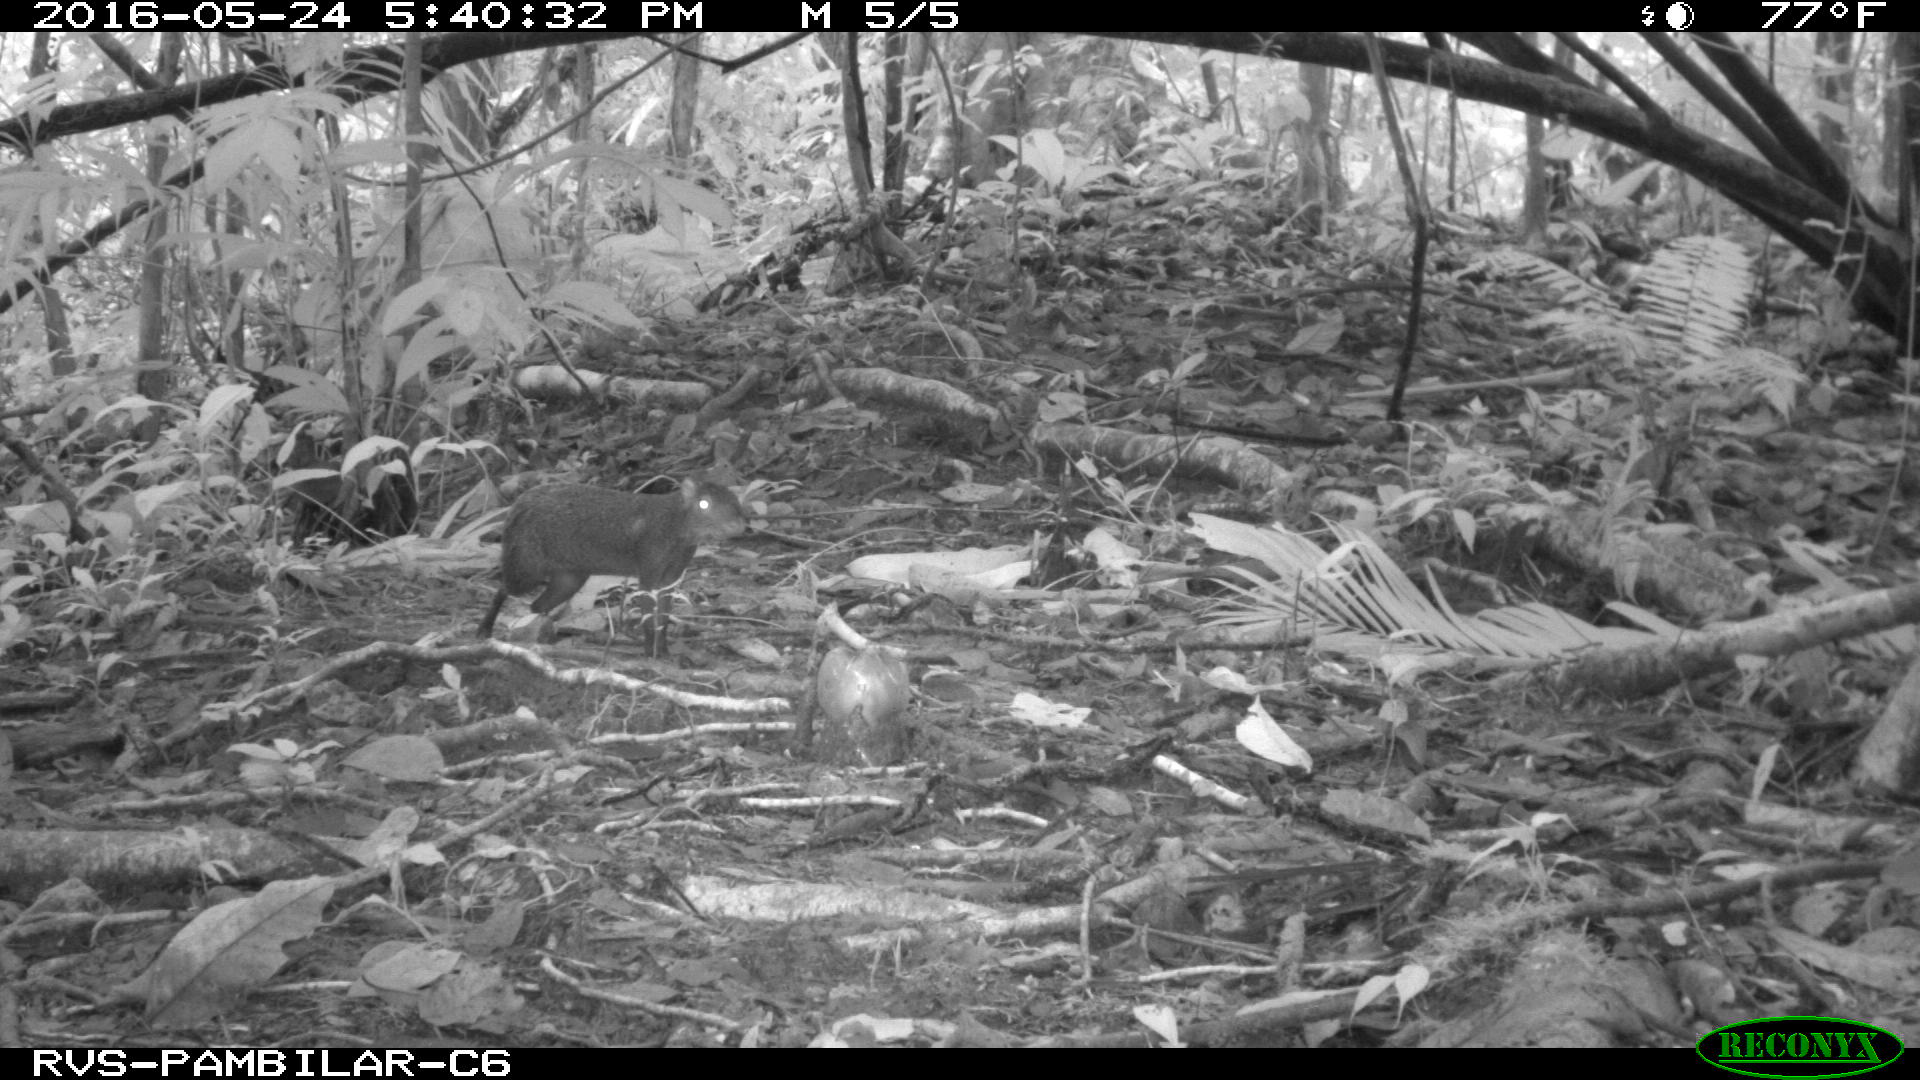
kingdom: Animalia
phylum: Chordata
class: Mammalia
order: Rodentia
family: Dasyproctidae
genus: Dasyprocta
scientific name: Dasyprocta punctata
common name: Central american agouti
